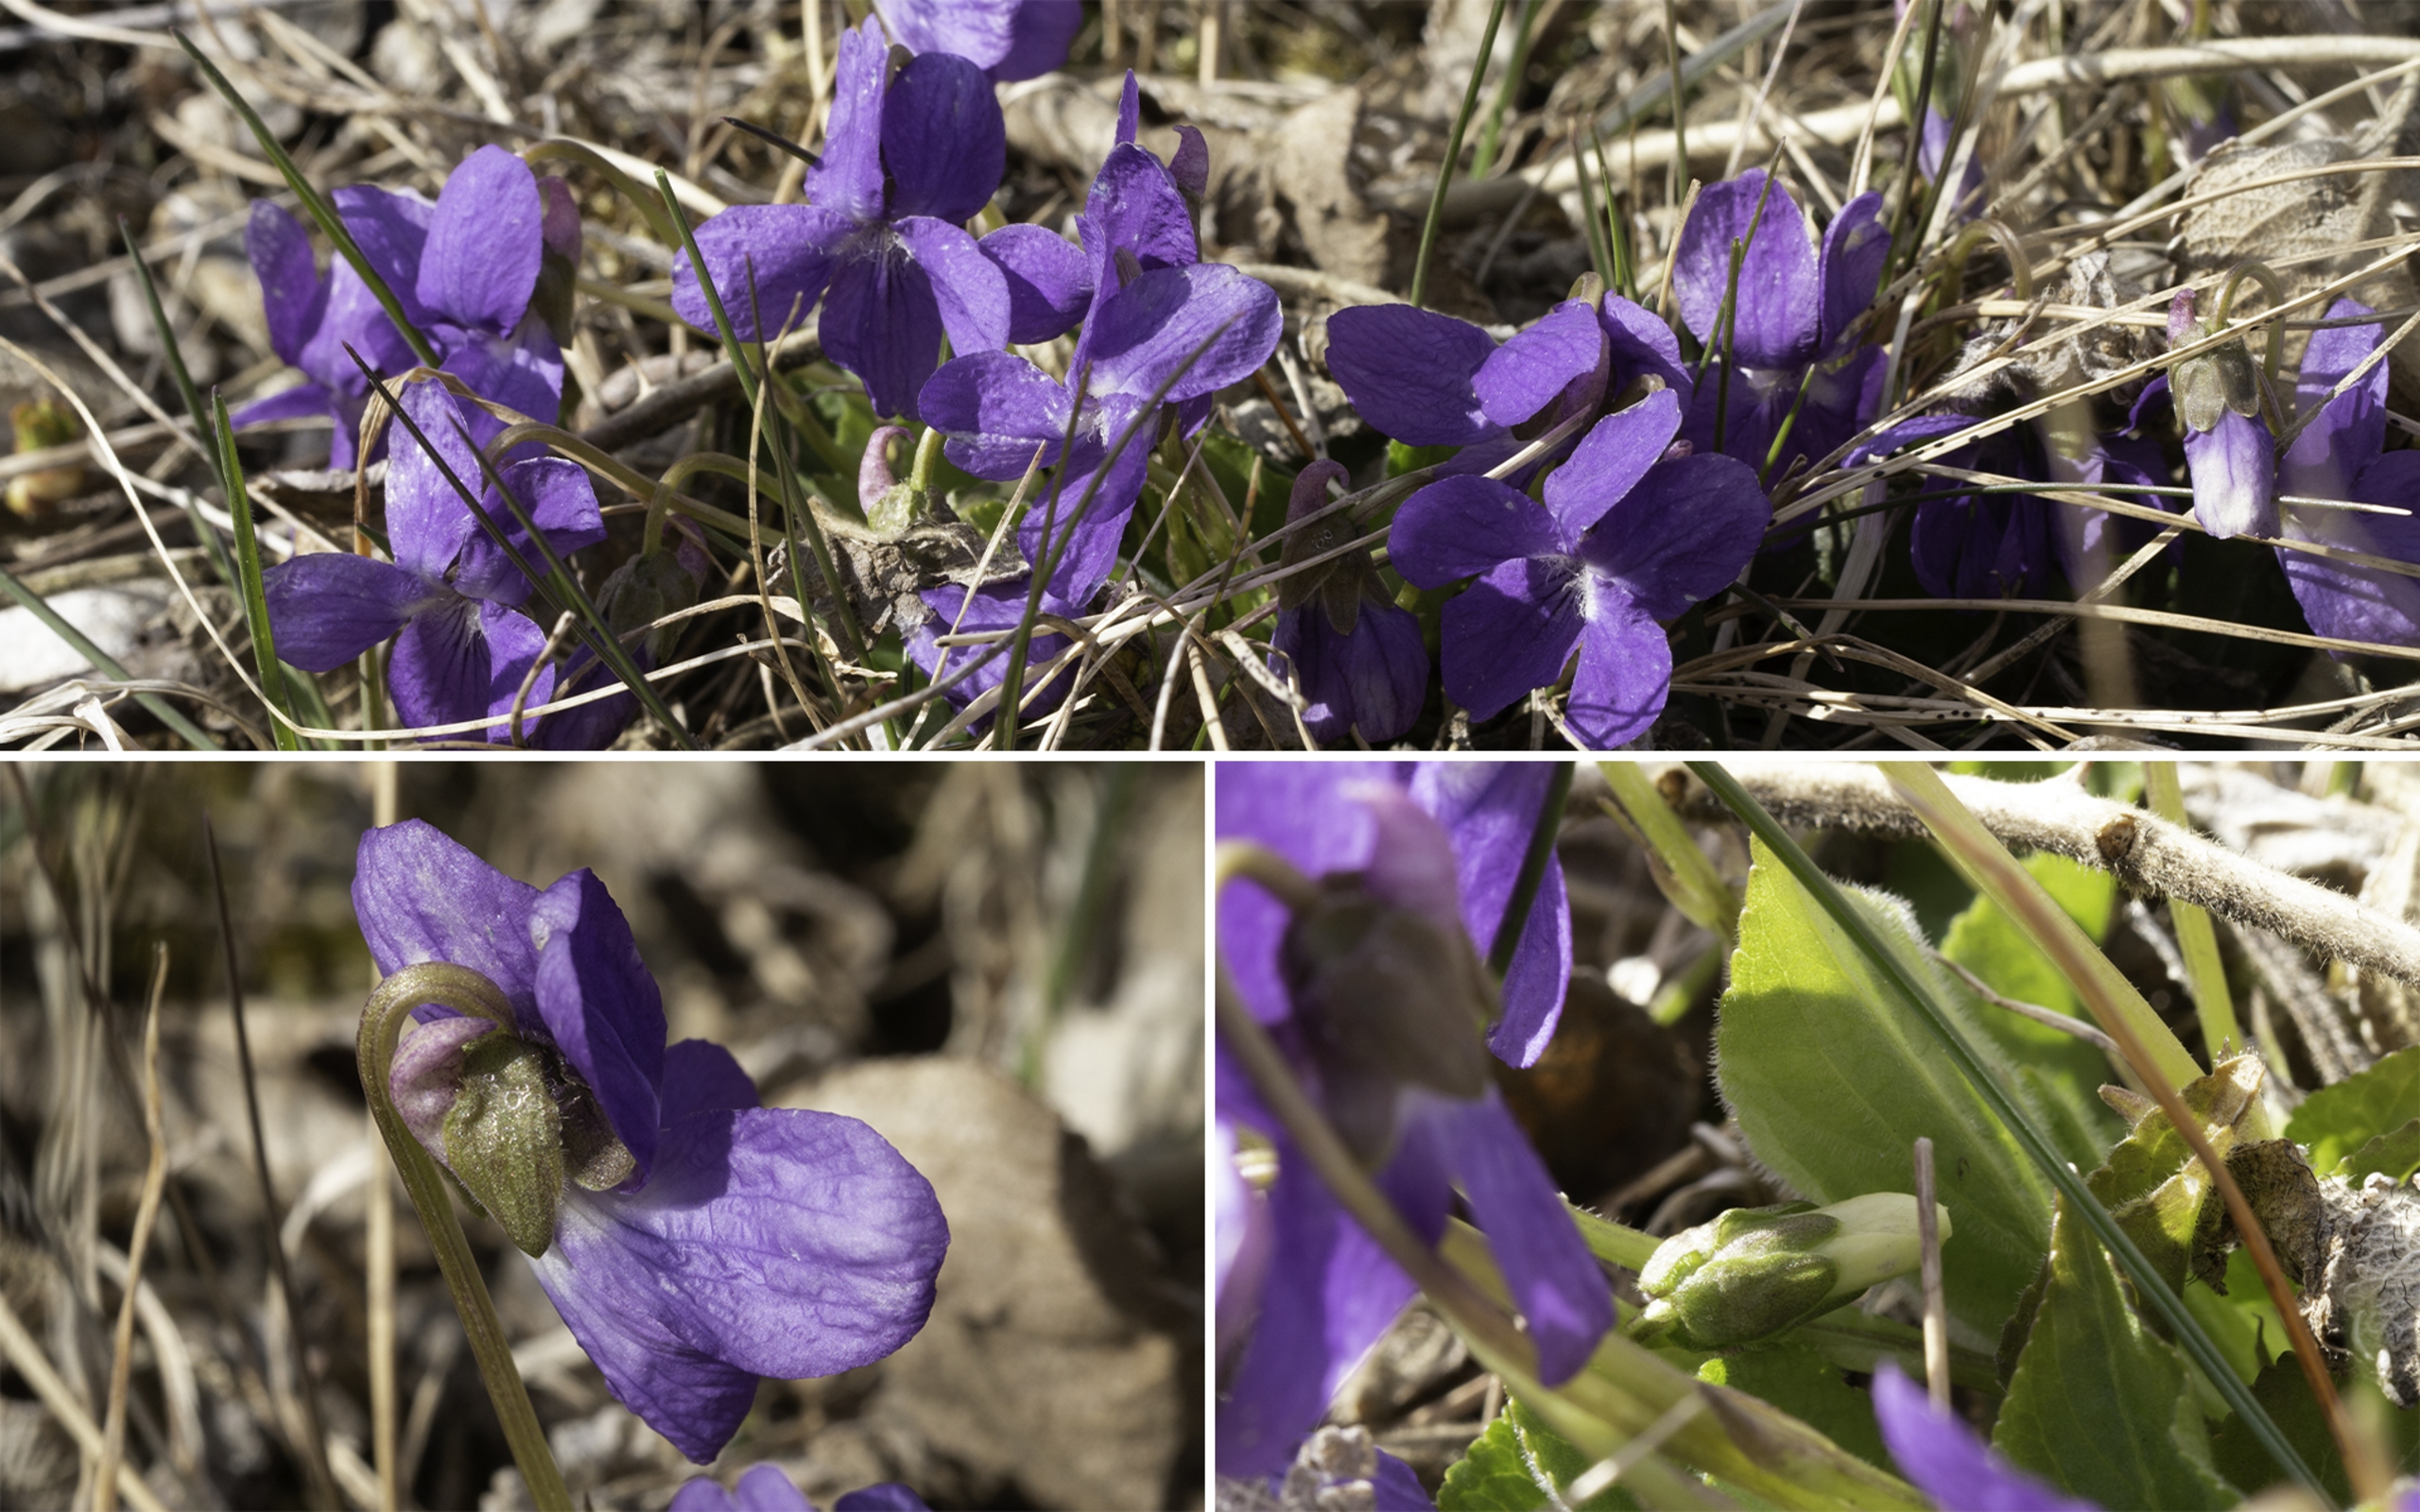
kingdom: Plantae
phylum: Tracheophyta
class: Magnoliopsida
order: Malpighiales
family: Violaceae
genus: Viola
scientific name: Viola hirta
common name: Håret viol
